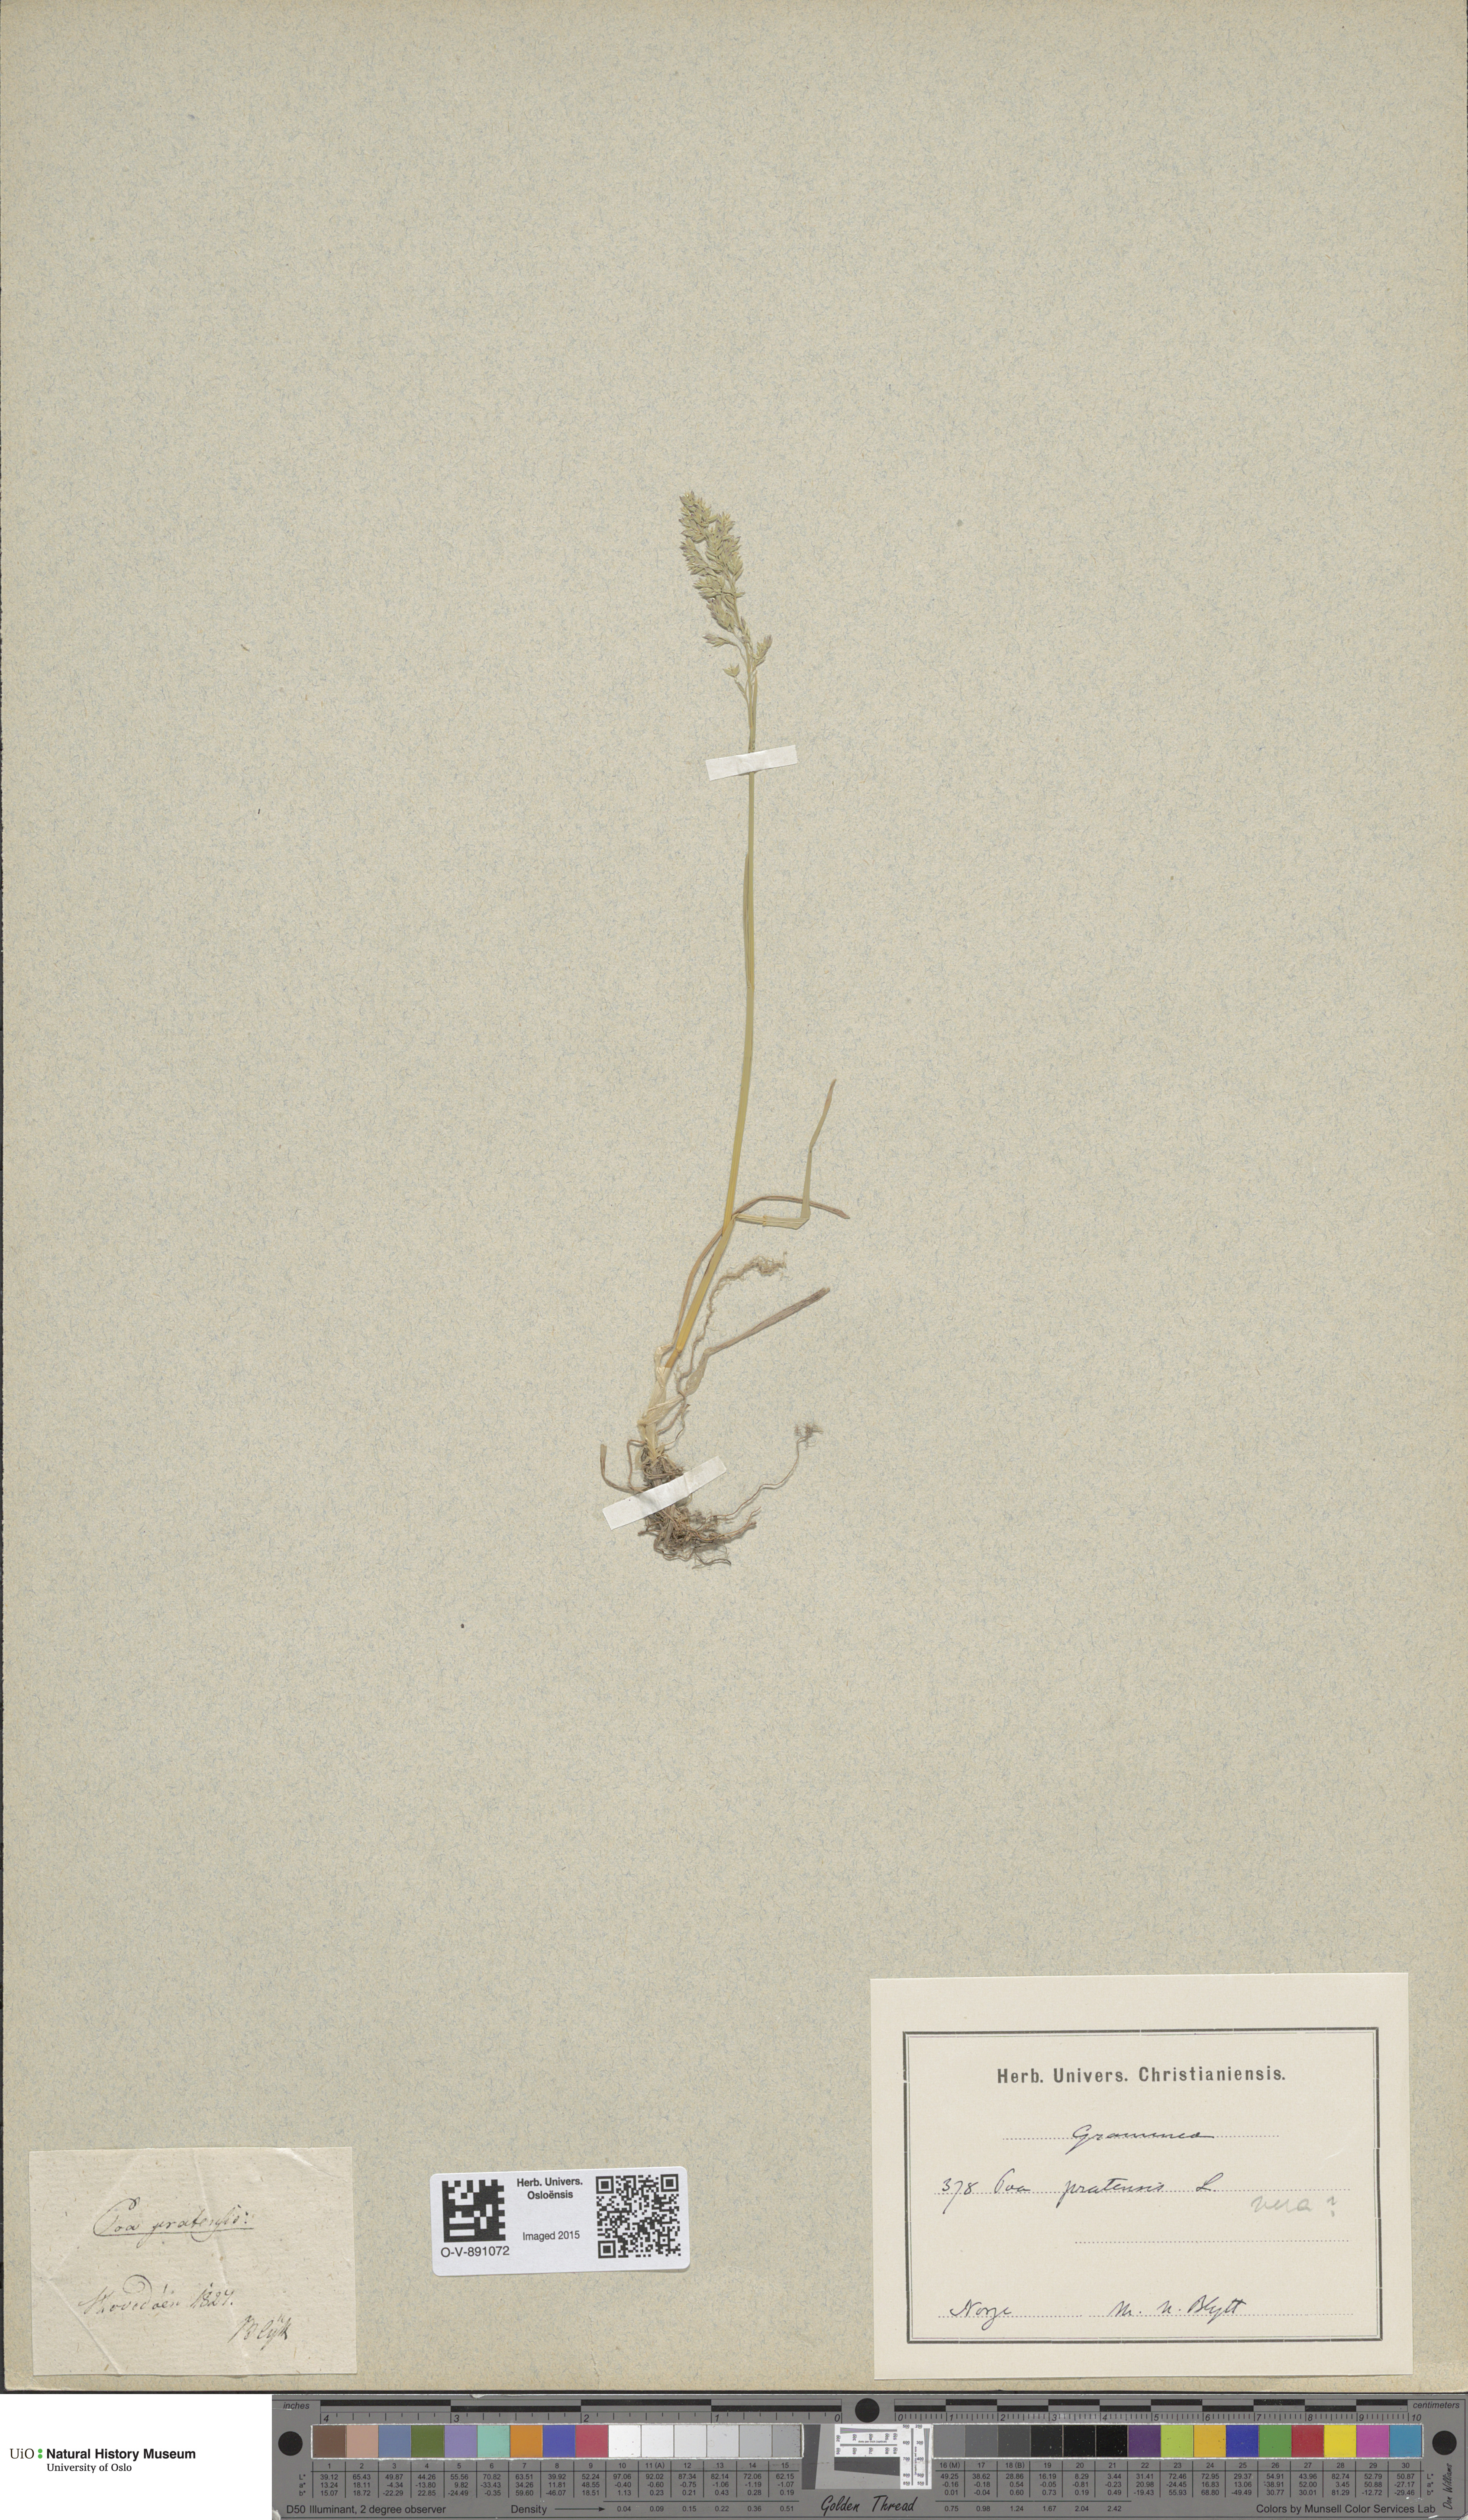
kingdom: Plantae
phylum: Tracheophyta
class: Liliopsida
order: Poales
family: Poaceae
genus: Poa
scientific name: Poa pratensis
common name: Kentucky bluegrass
